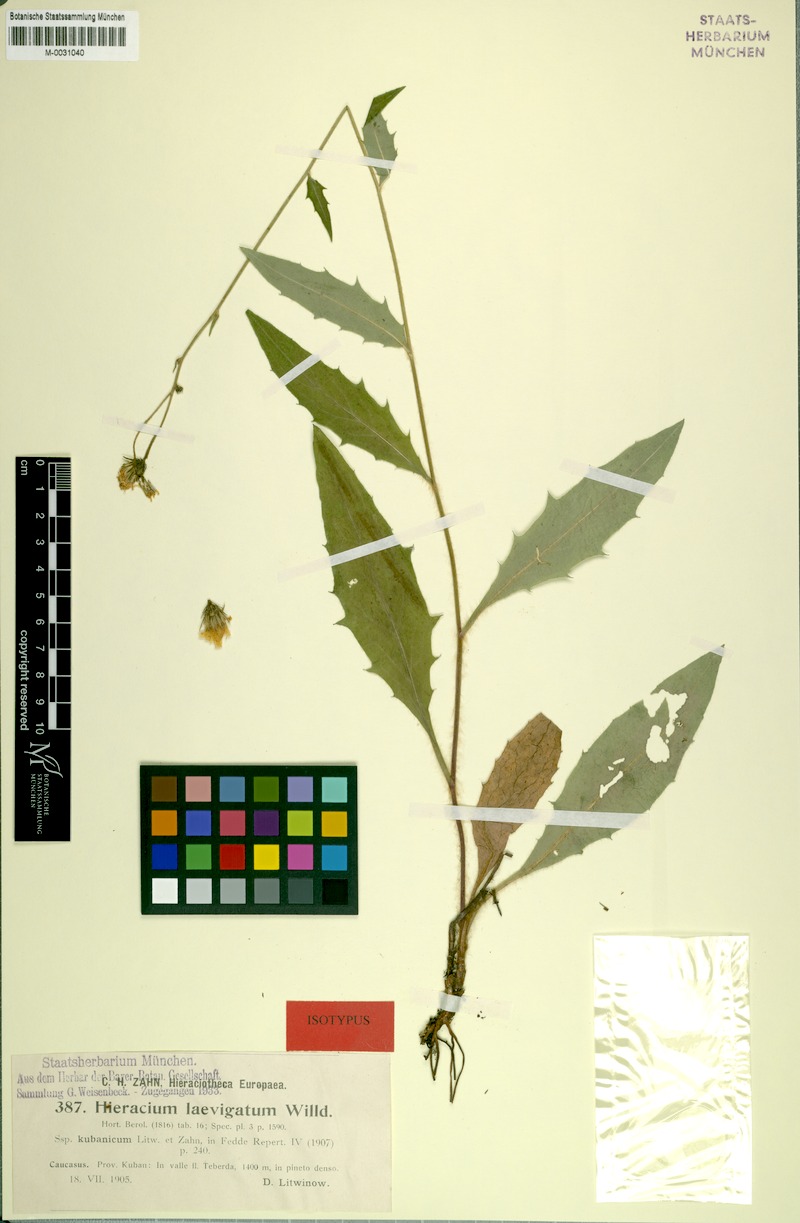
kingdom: Plantae
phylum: Tracheophyta
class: Magnoliopsida
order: Asterales
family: Asteraceae
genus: Hieracium
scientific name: Hieracium laevigatum
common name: Smooth hawkweed
